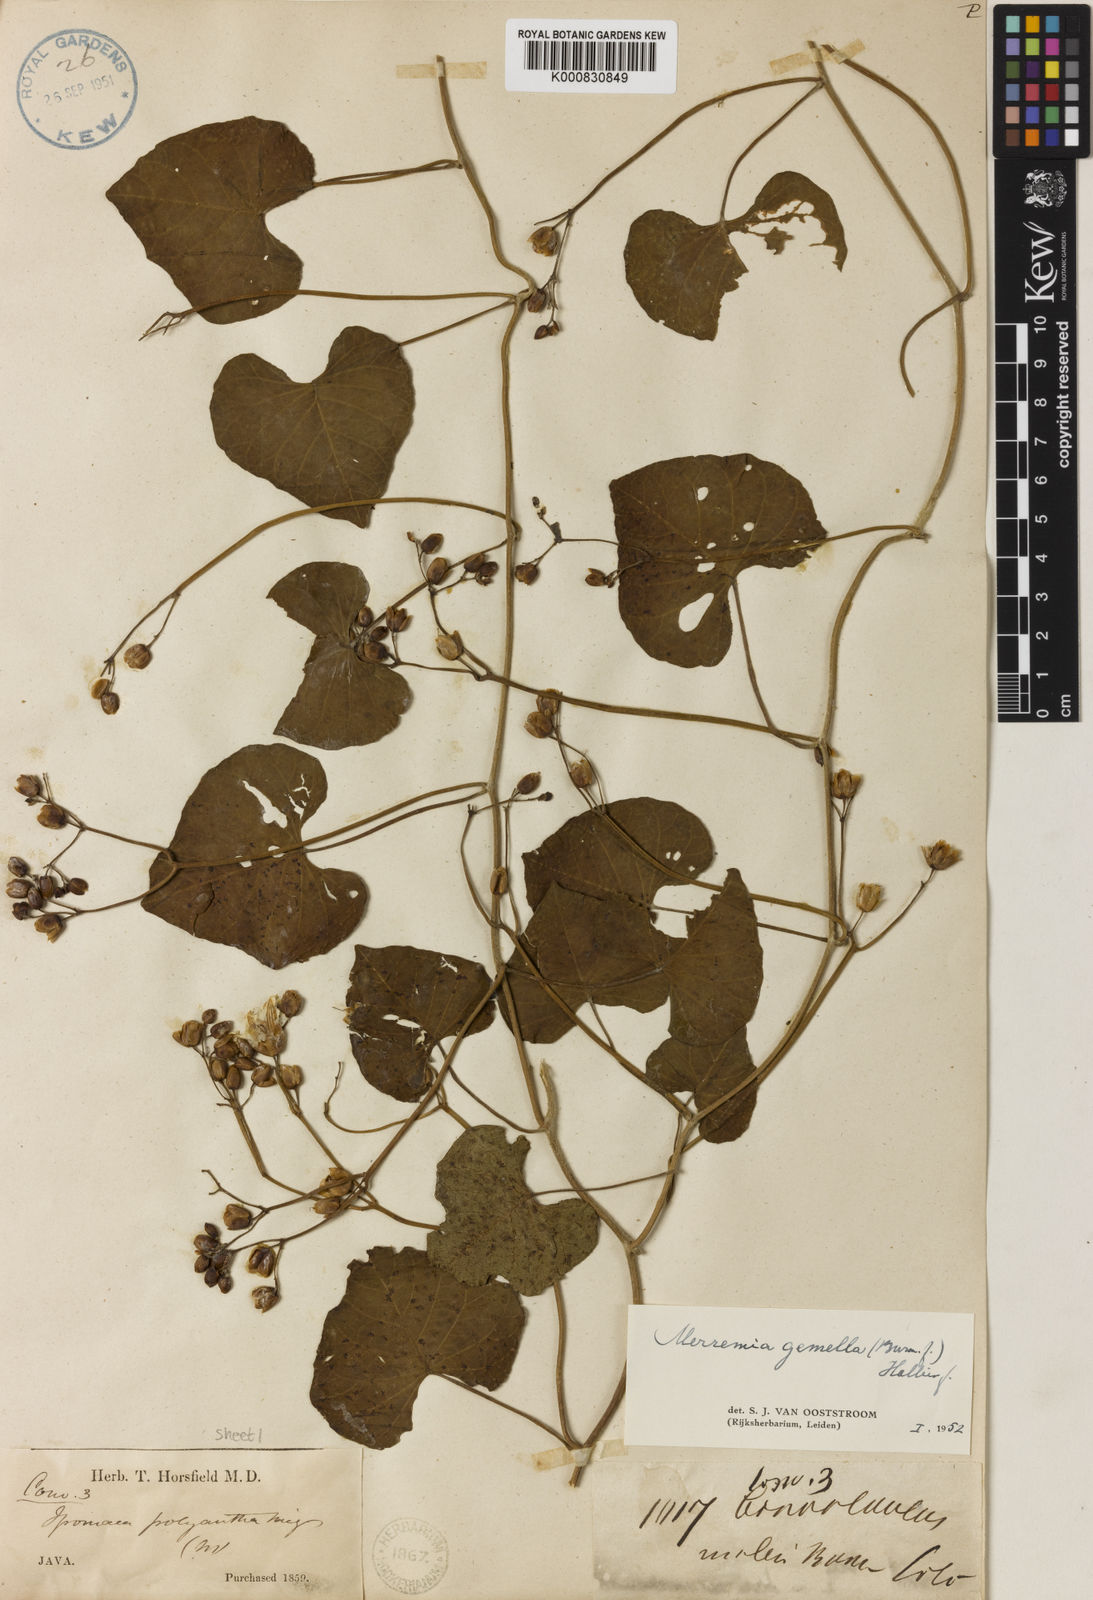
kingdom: Plantae
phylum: Tracheophyta
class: Magnoliopsida
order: Solanales
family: Convolvulaceae
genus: Merremia
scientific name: Merremia gemella
